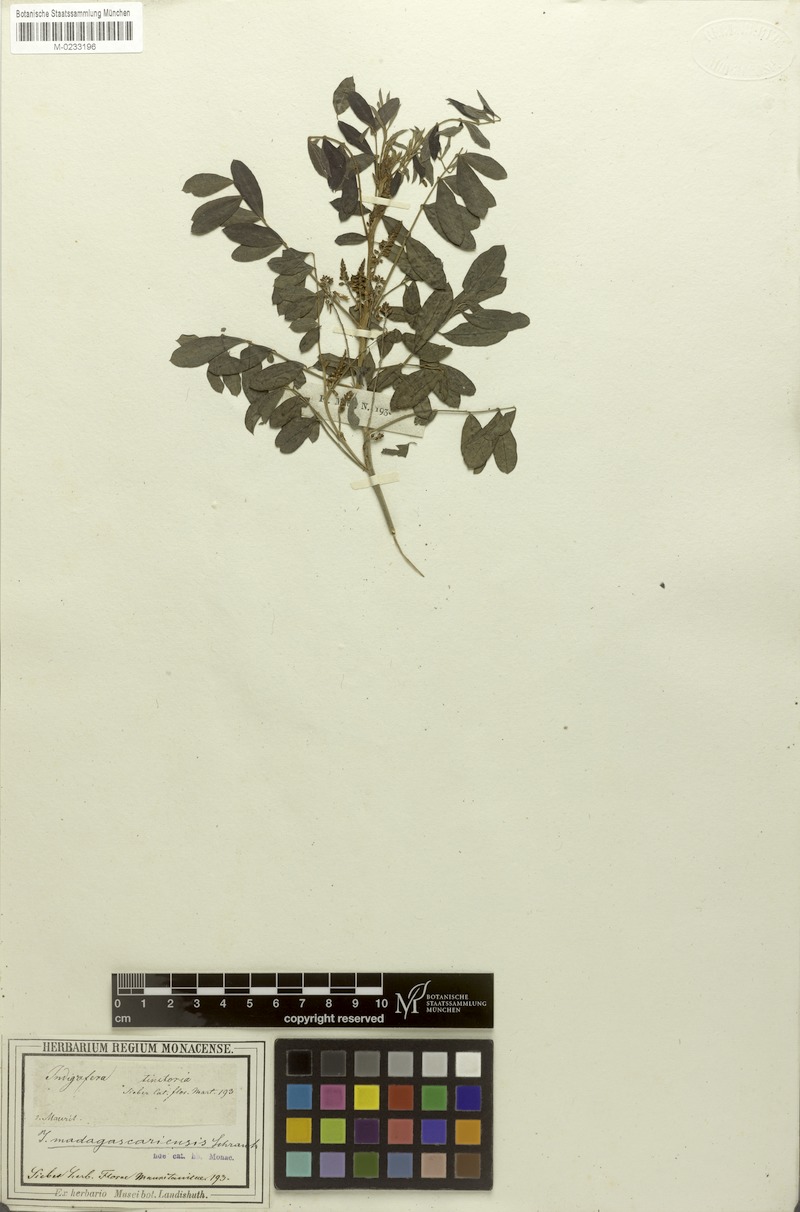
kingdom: Plantae
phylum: Tracheophyta
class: Magnoliopsida
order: Fabales
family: Fabaceae
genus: Indigofera
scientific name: Indigofera arrecta
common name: Bengal indigo
